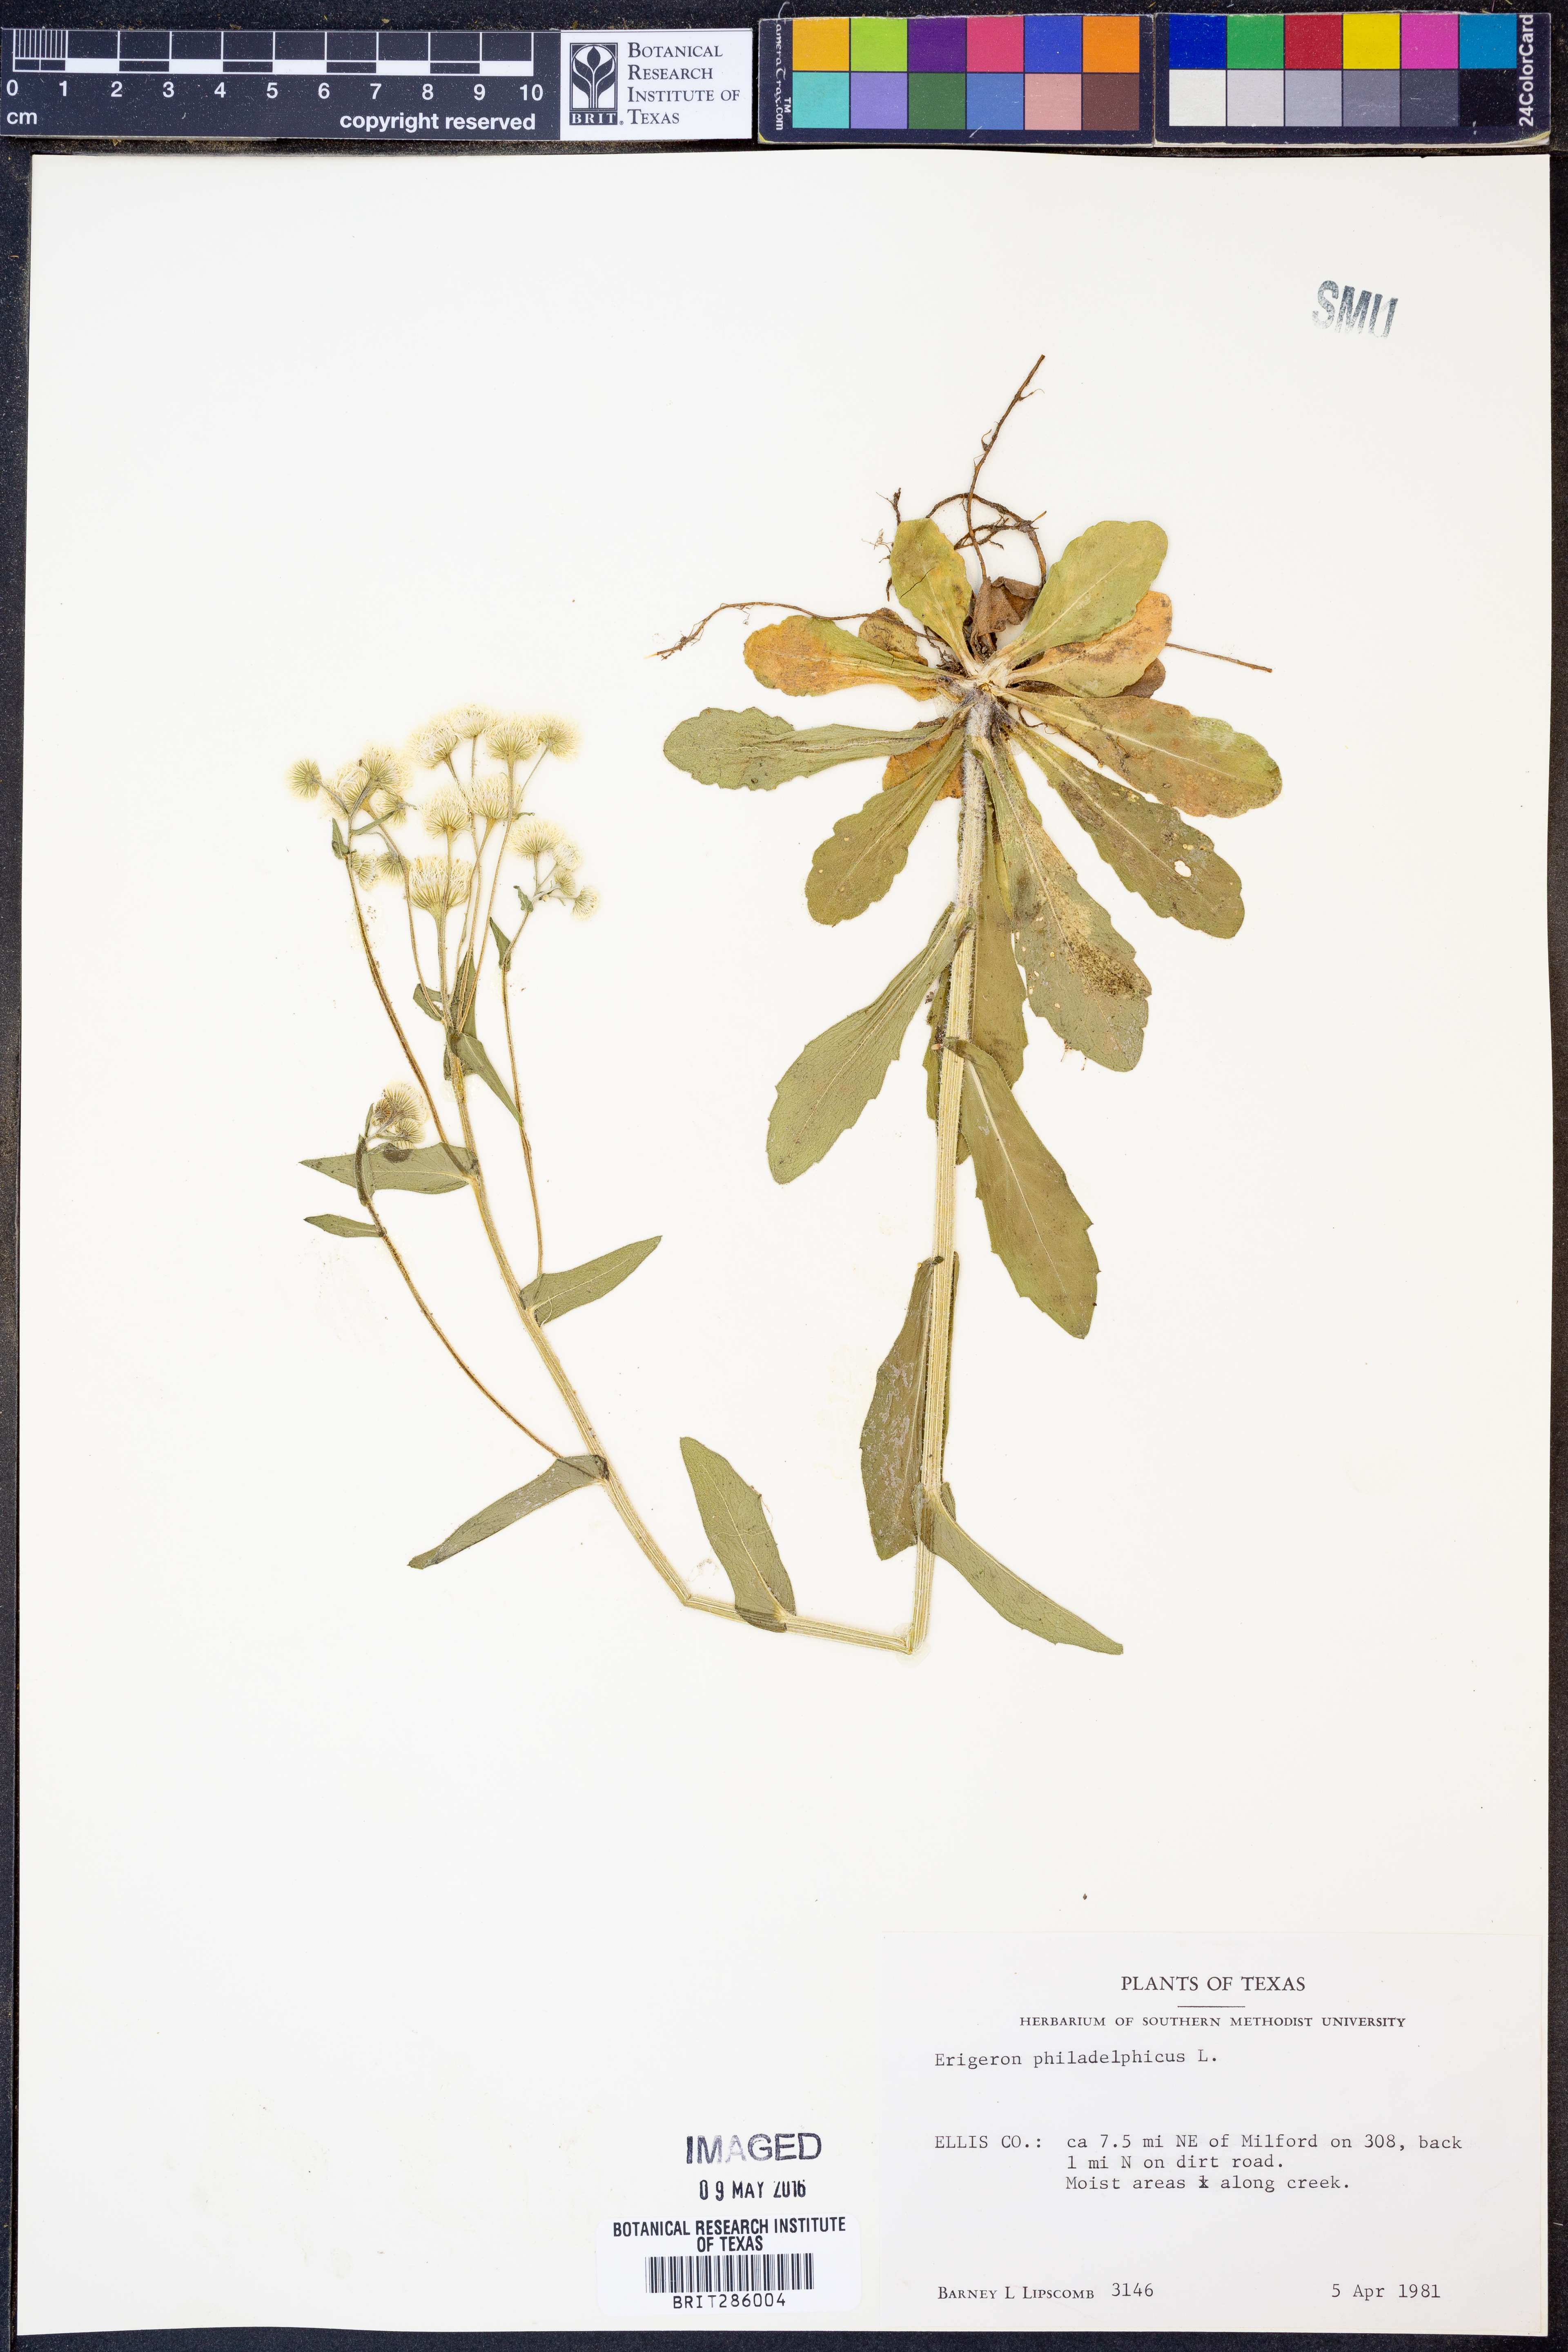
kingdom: Plantae
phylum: Tracheophyta
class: Magnoliopsida
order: Asterales
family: Asteraceae
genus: Erigeron
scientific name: Erigeron philadelphicus
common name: Robin's-plantain
